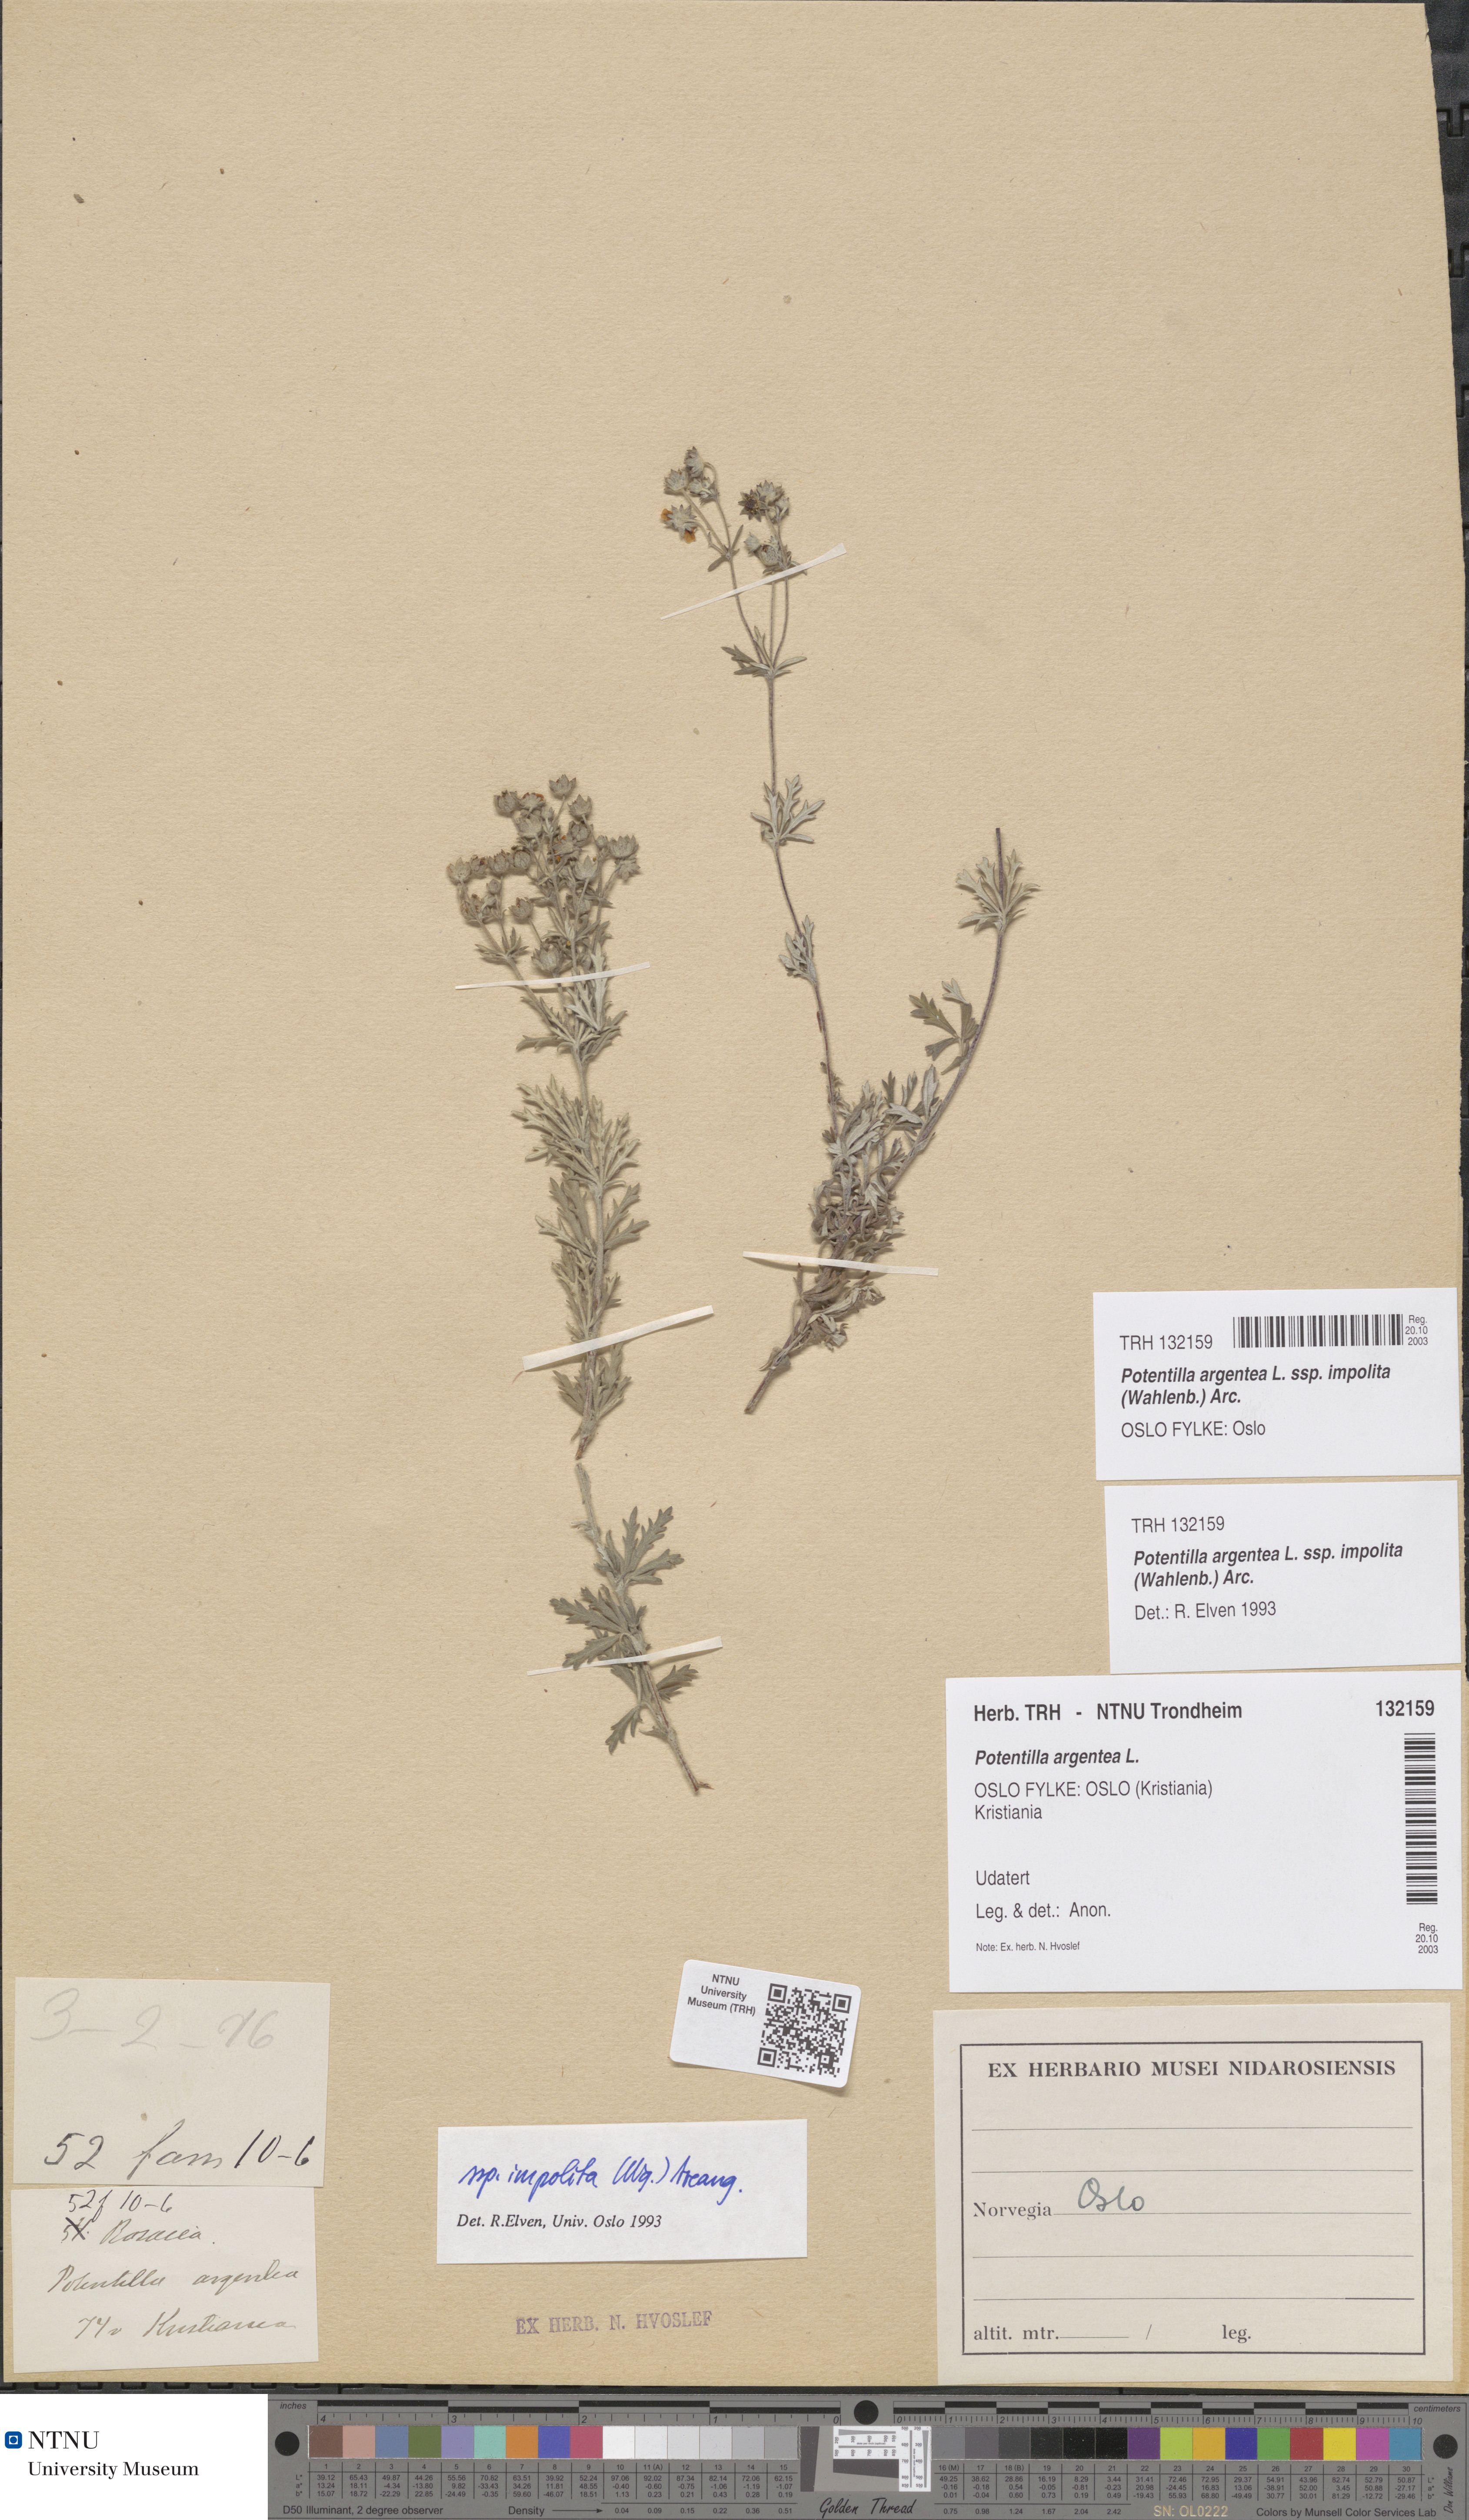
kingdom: Plantae
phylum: Tracheophyta
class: Magnoliopsida
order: Rosales
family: Rosaceae
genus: Potentilla
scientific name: Potentilla neglecta
